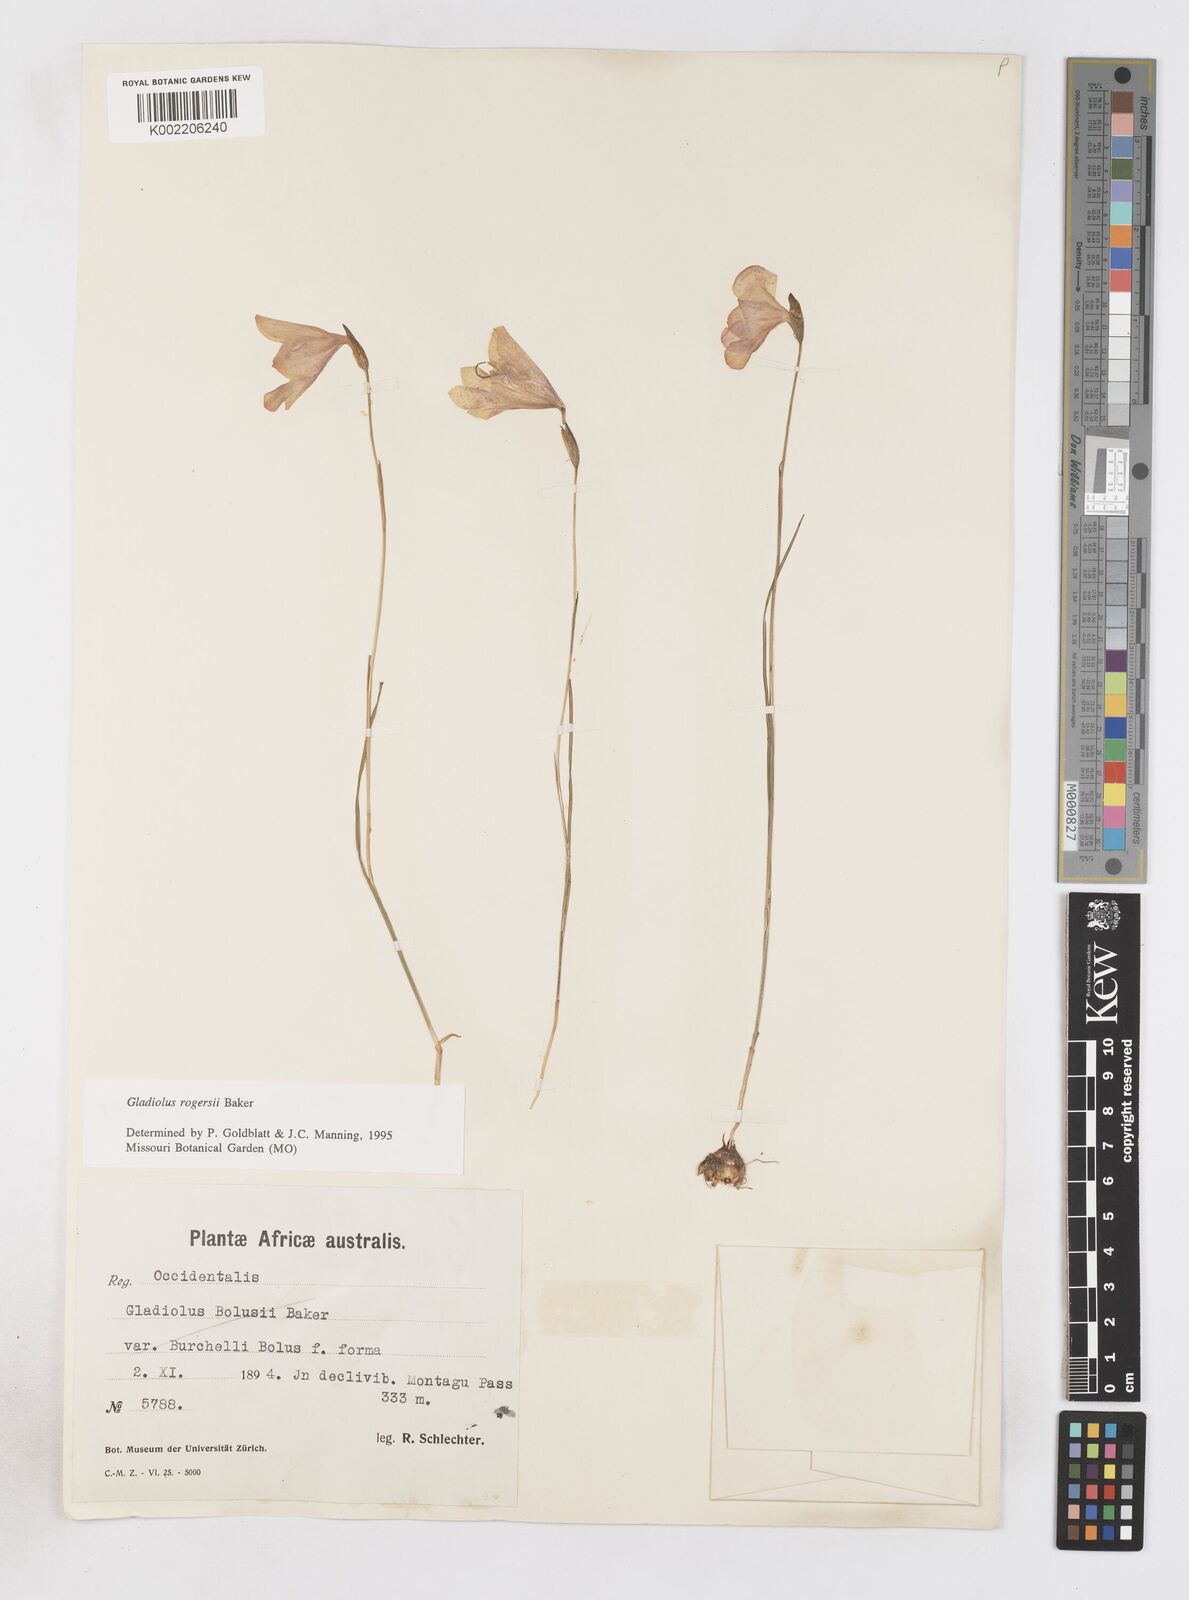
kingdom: Plantae
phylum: Tracheophyta
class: Liliopsida
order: Asparagales
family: Iridaceae
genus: Gladiolus
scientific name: Gladiolus rogersii
